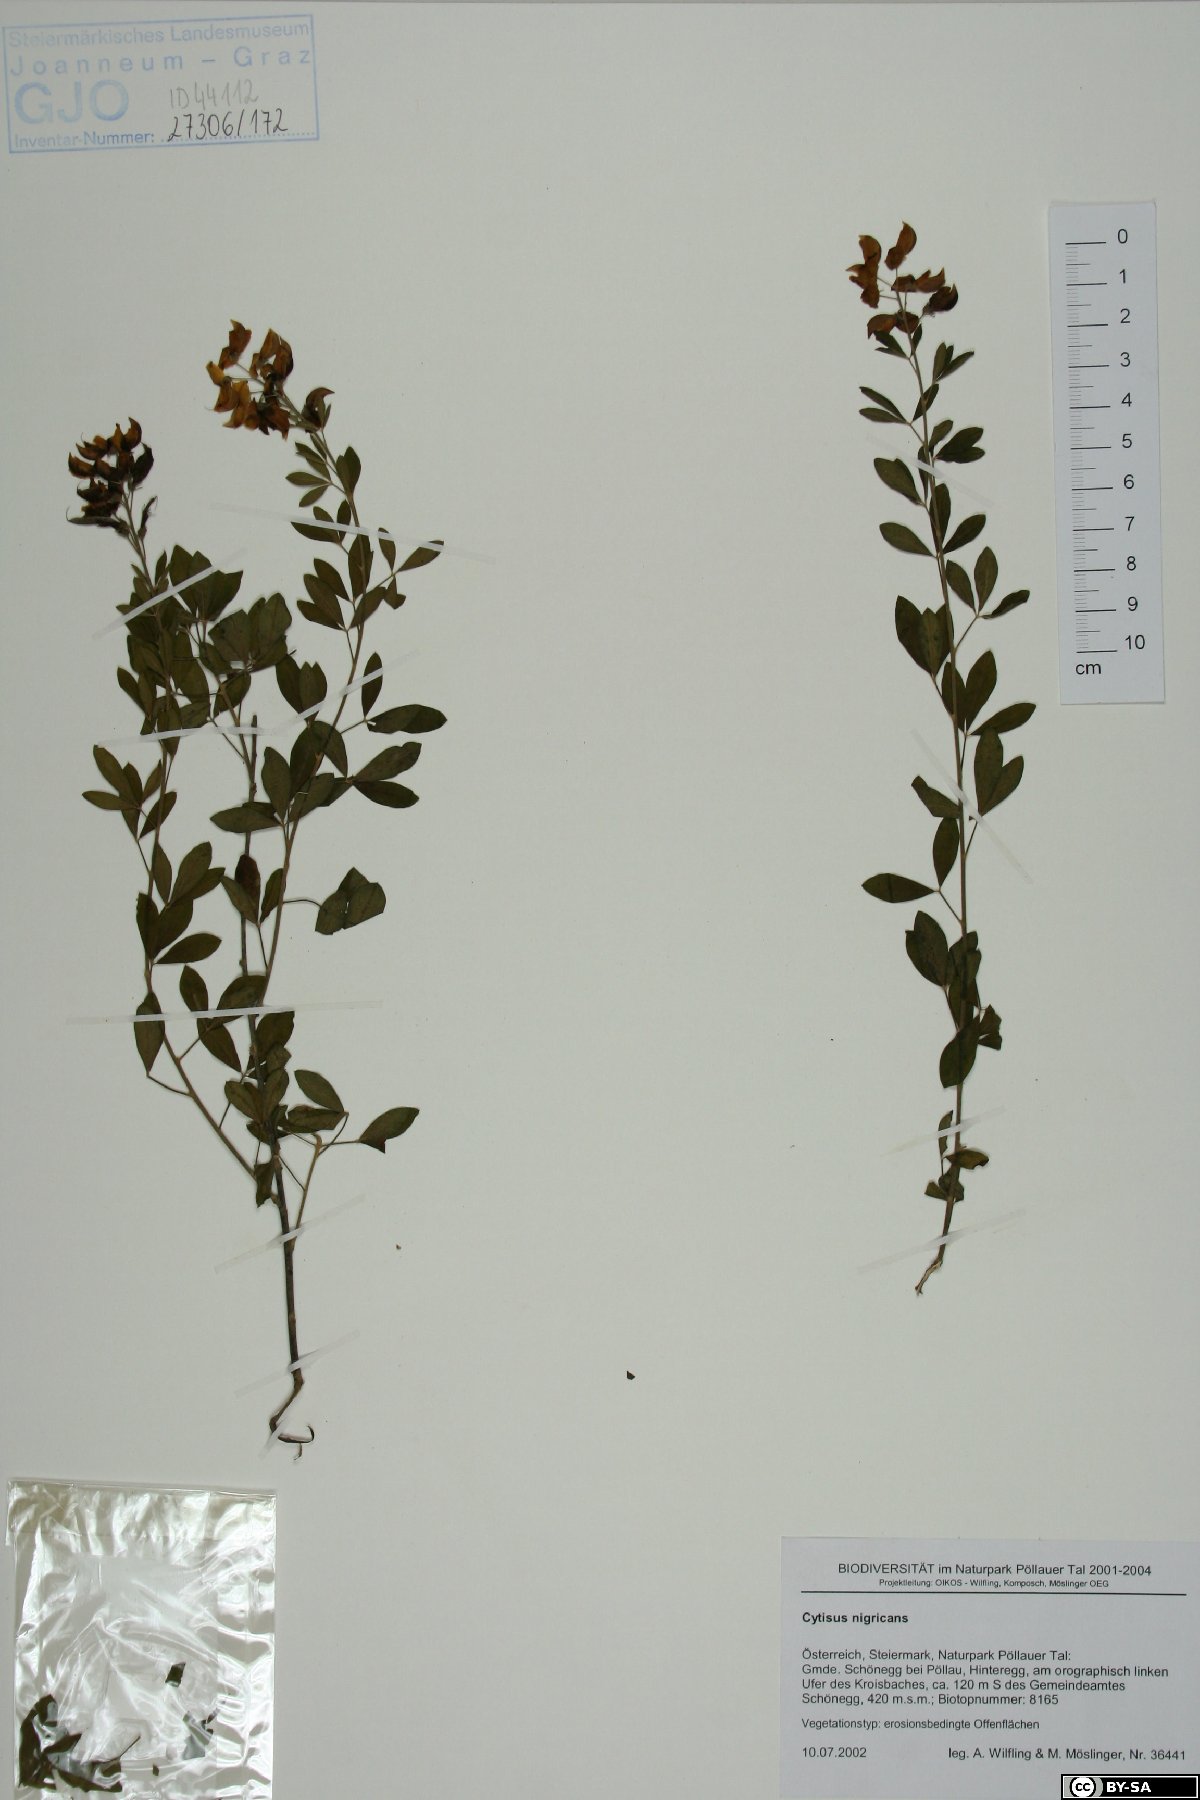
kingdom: Plantae
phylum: Tracheophyta
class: Magnoliopsida
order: Fabales
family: Fabaceae
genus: Cytisus
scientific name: Cytisus nigricans
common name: Black broom
